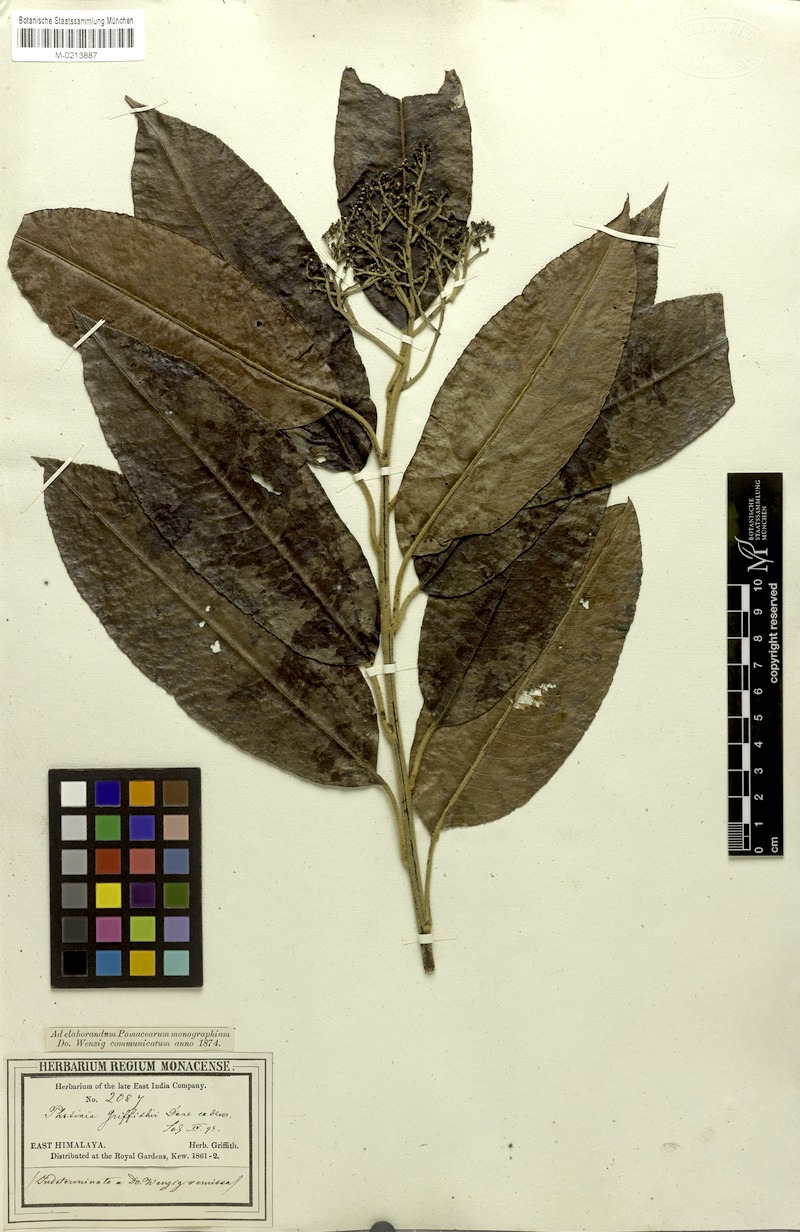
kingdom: Plantae
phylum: Tracheophyta
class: Magnoliopsida
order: Rosales
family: Rosaceae
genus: Photinia
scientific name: Photinia griffithii
